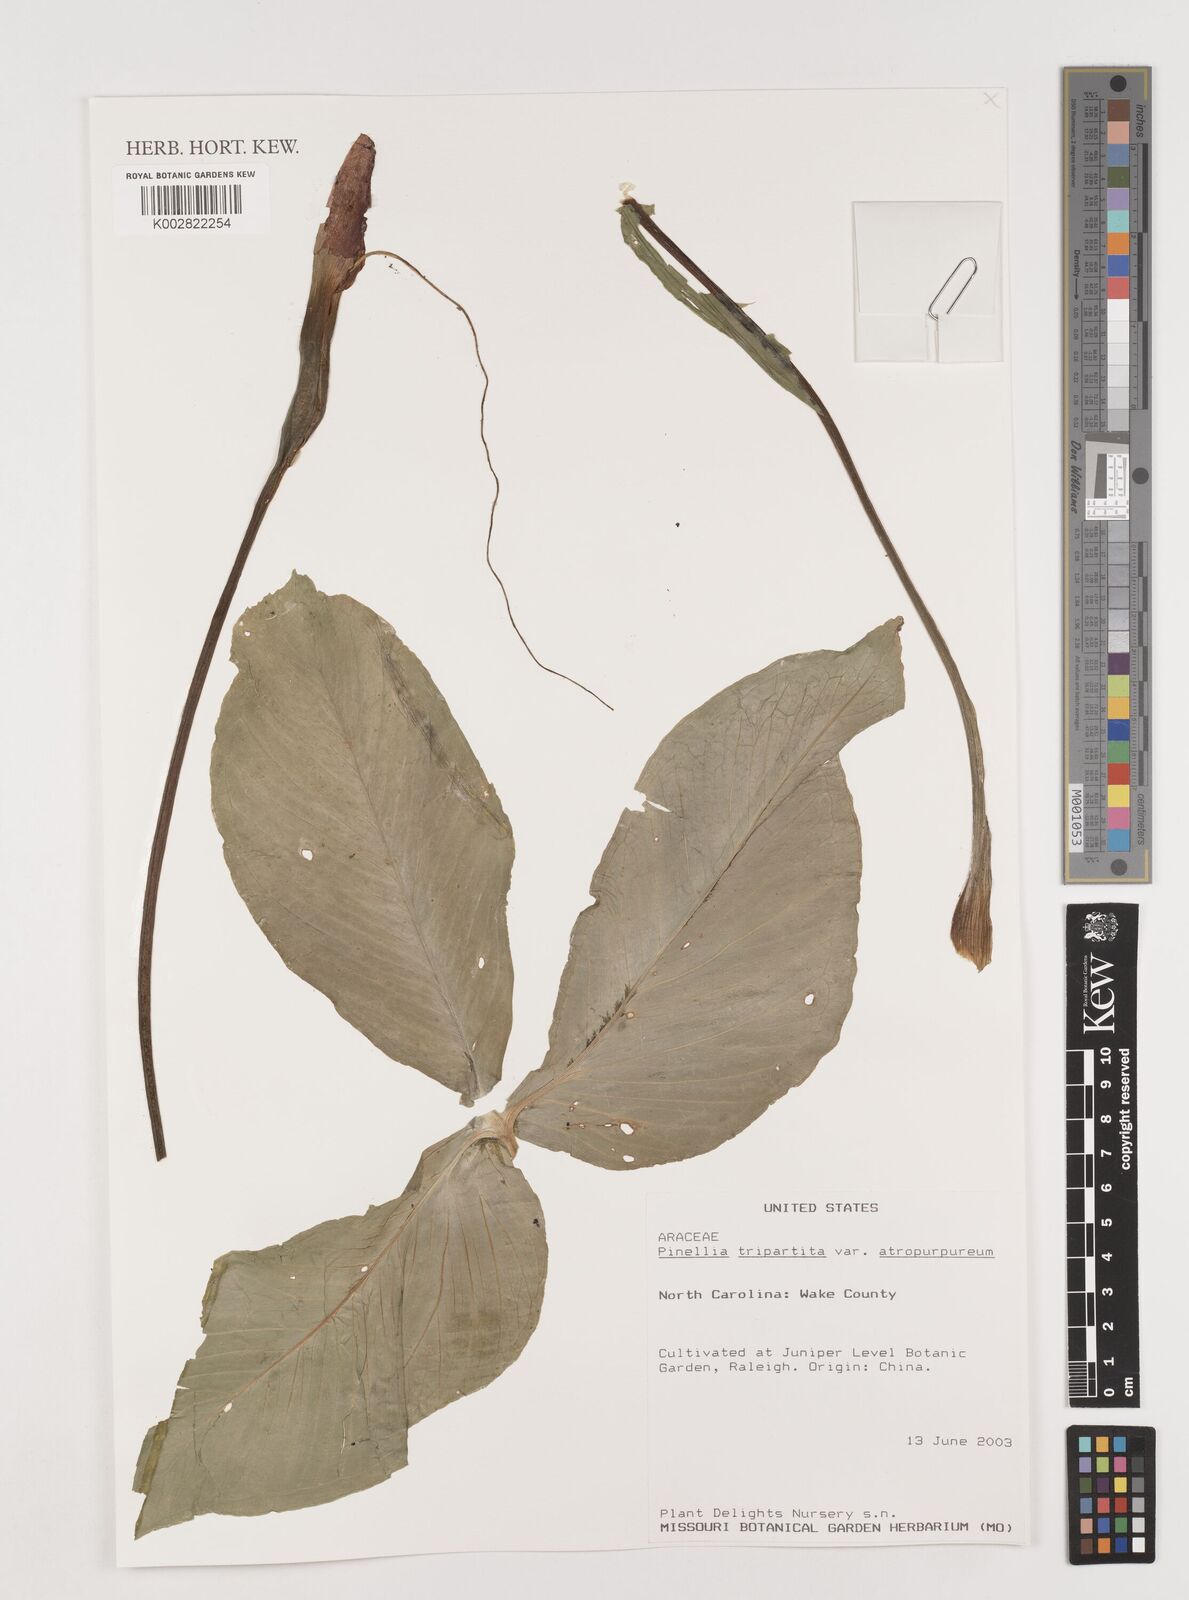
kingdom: Plantae
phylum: Tracheophyta
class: Liliopsida
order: Alismatales
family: Araceae
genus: Pinellia
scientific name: Pinellia tripartita
